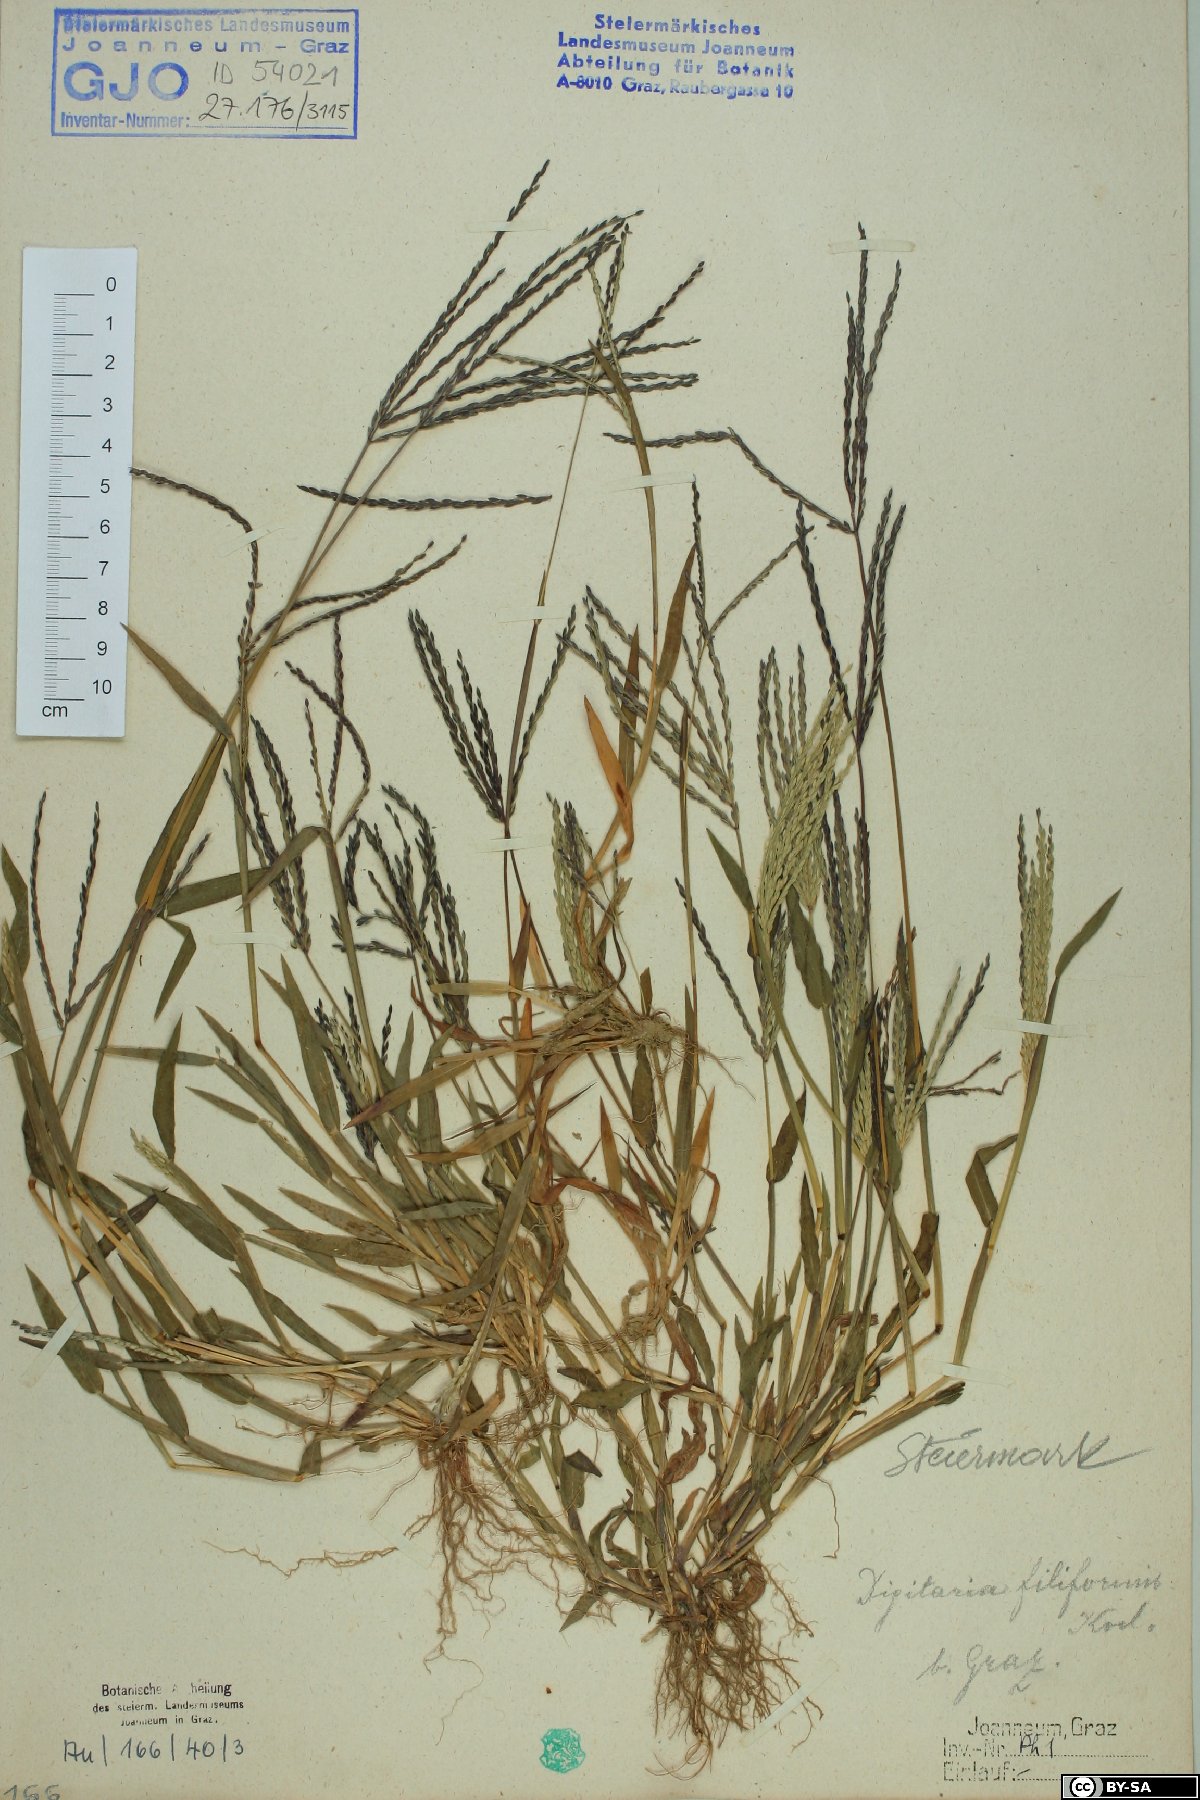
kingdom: Plantae
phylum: Tracheophyta
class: Liliopsida
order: Poales
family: Poaceae
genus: Digitaria
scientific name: Digitaria filiformis
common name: Slender crabgrass
